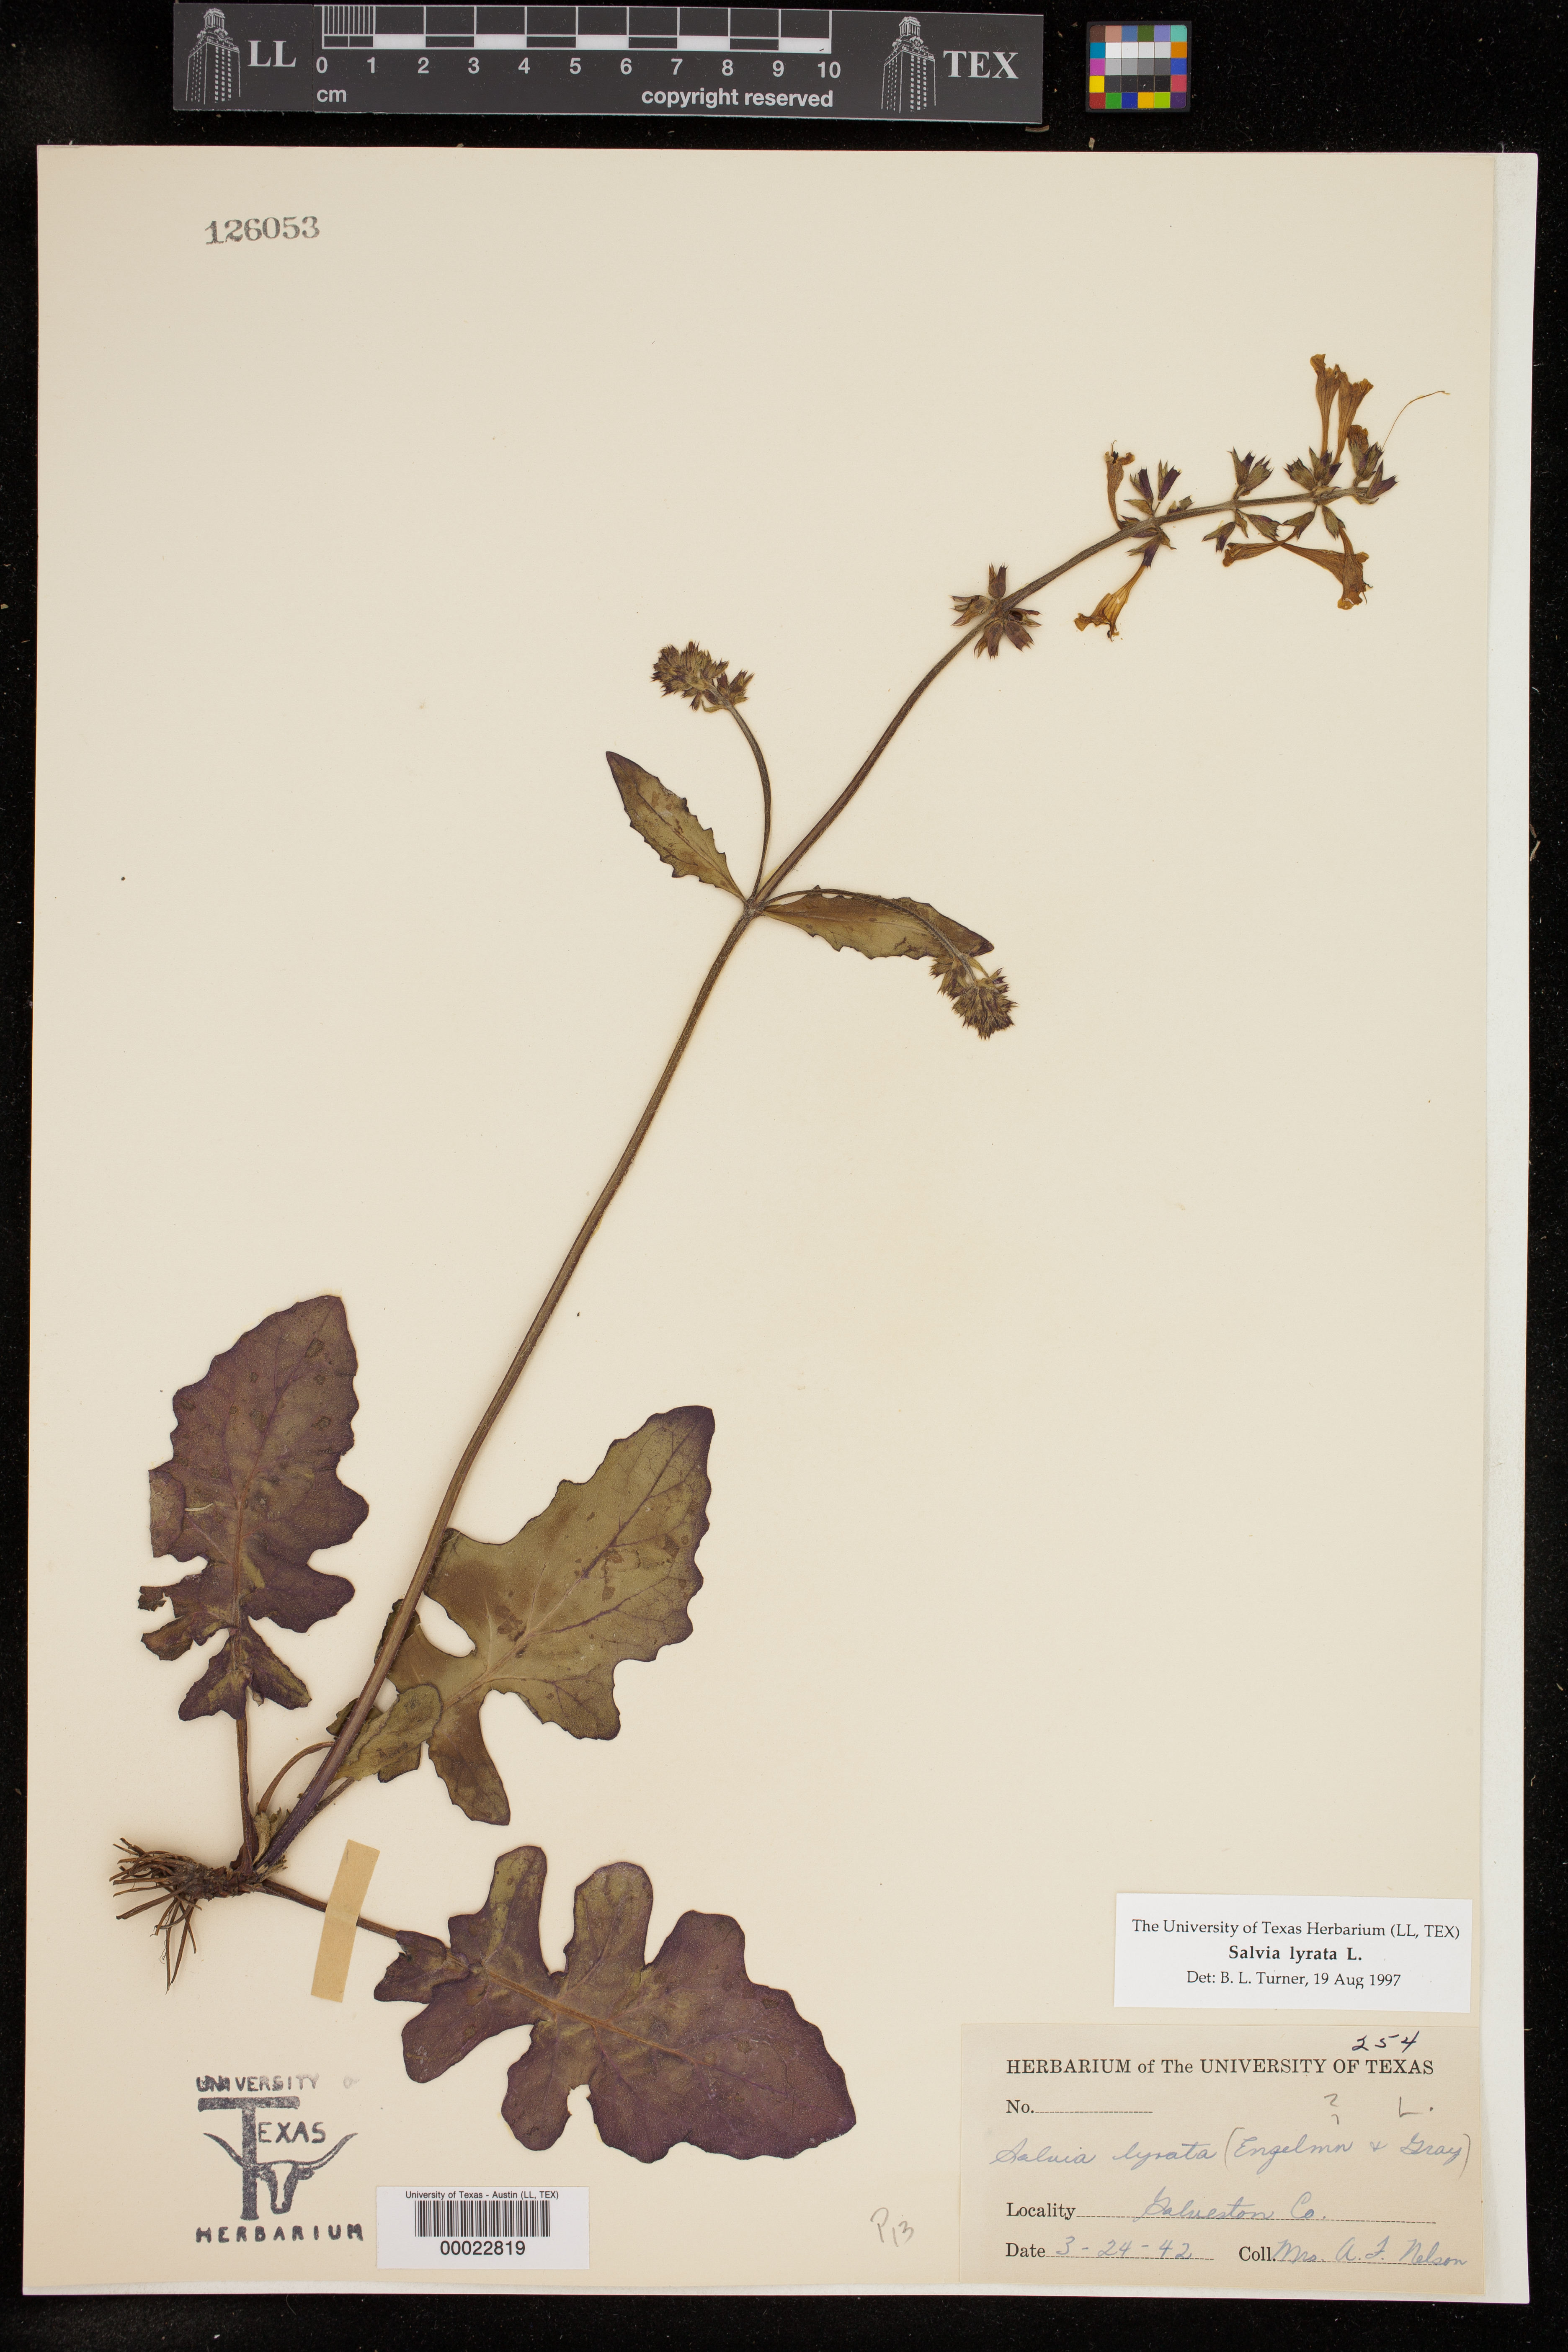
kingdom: Plantae
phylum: Tracheophyta
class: Magnoliopsida
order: Lamiales
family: Lamiaceae
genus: Salvia
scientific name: Salvia lyrata
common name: Cancerweed
